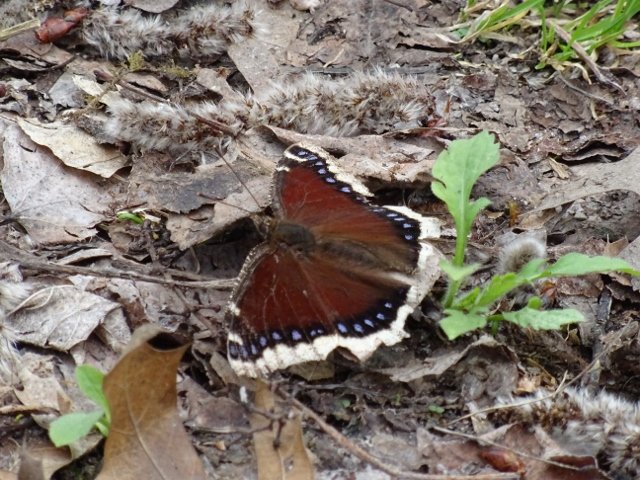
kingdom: Animalia
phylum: Arthropoda
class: Insecta
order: Lepidoptera
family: Nymphalidae
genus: Nymphalis
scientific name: Nymphalis antiopa
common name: Mourning Cloak
